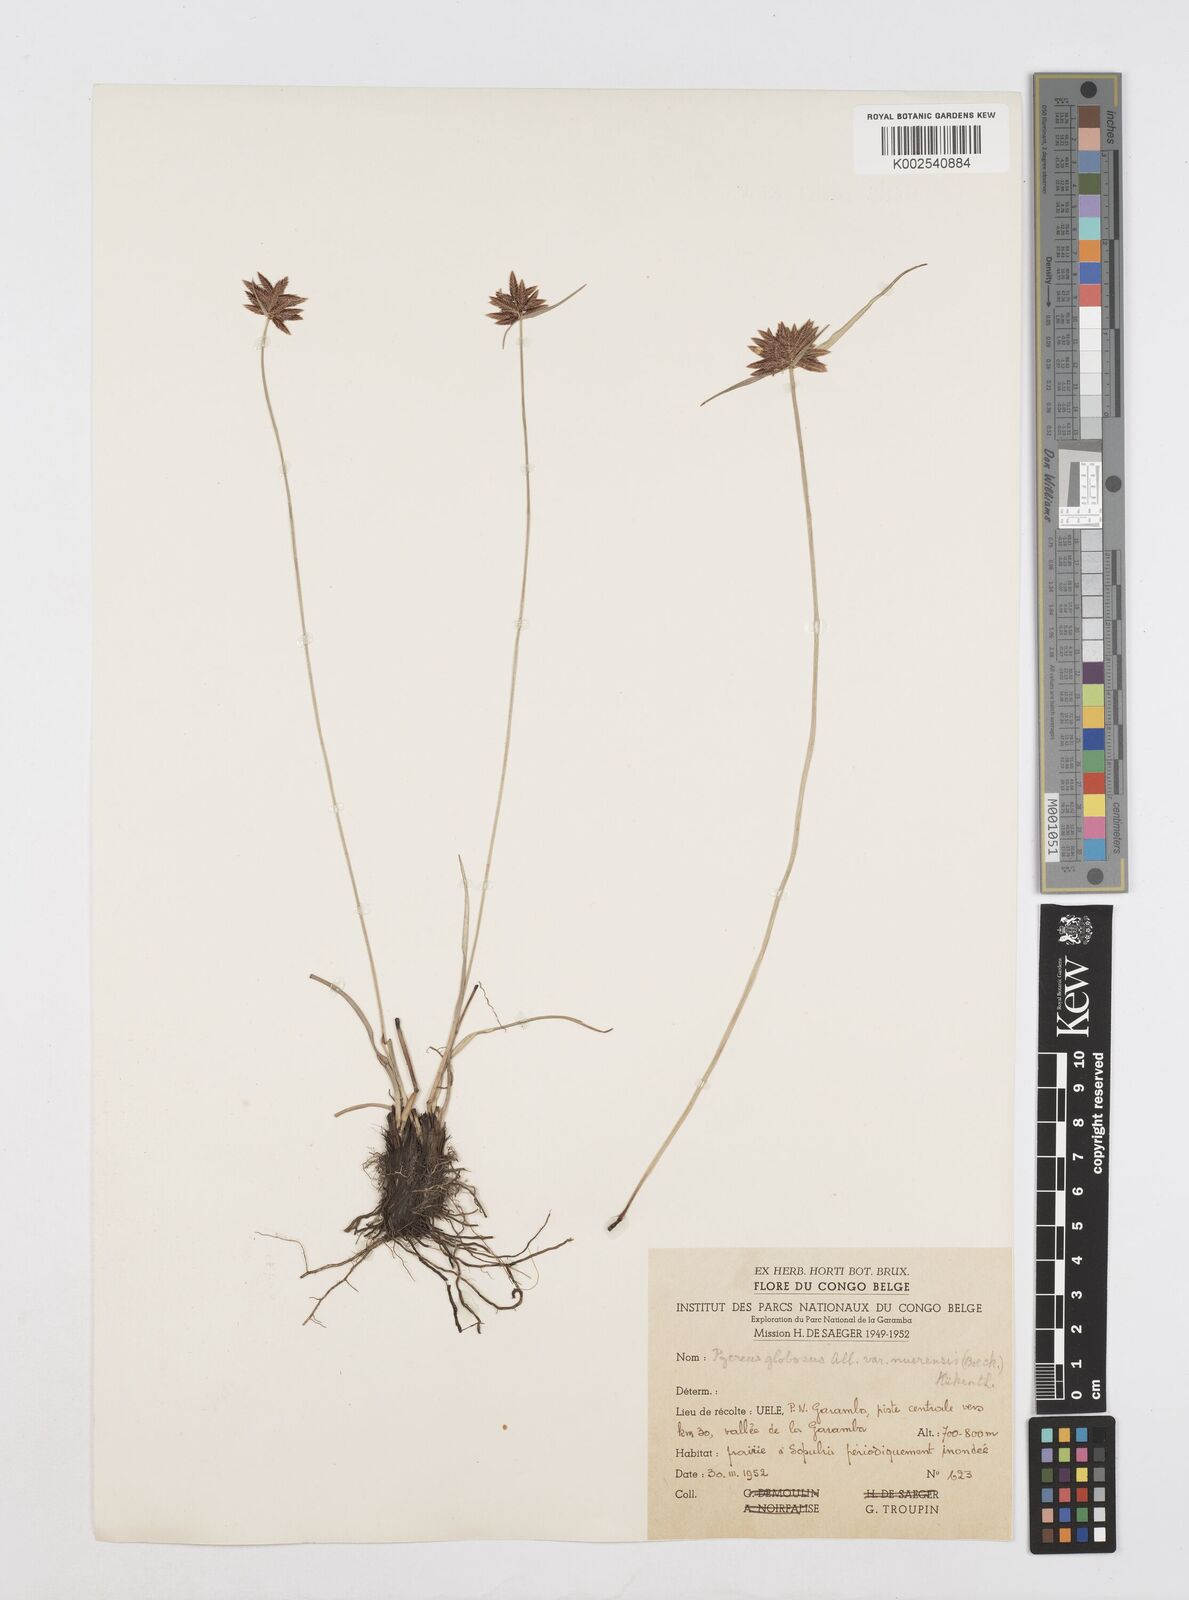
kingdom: Plantae
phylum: Tracheophyta
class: Liliopsida
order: Poales
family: Cyperaceae
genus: Cyperus
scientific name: Cyperus nigricans
